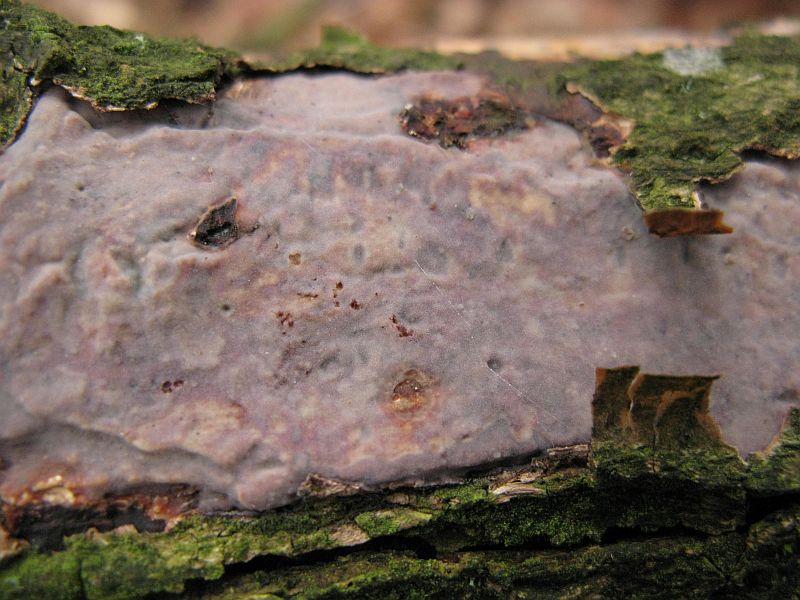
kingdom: Fungi
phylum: Basidiomycota
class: Agaricomycetes
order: Russulales
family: Peniophoraceae
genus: Peniophora
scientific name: Peniophora quercina
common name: ege-voksskind
